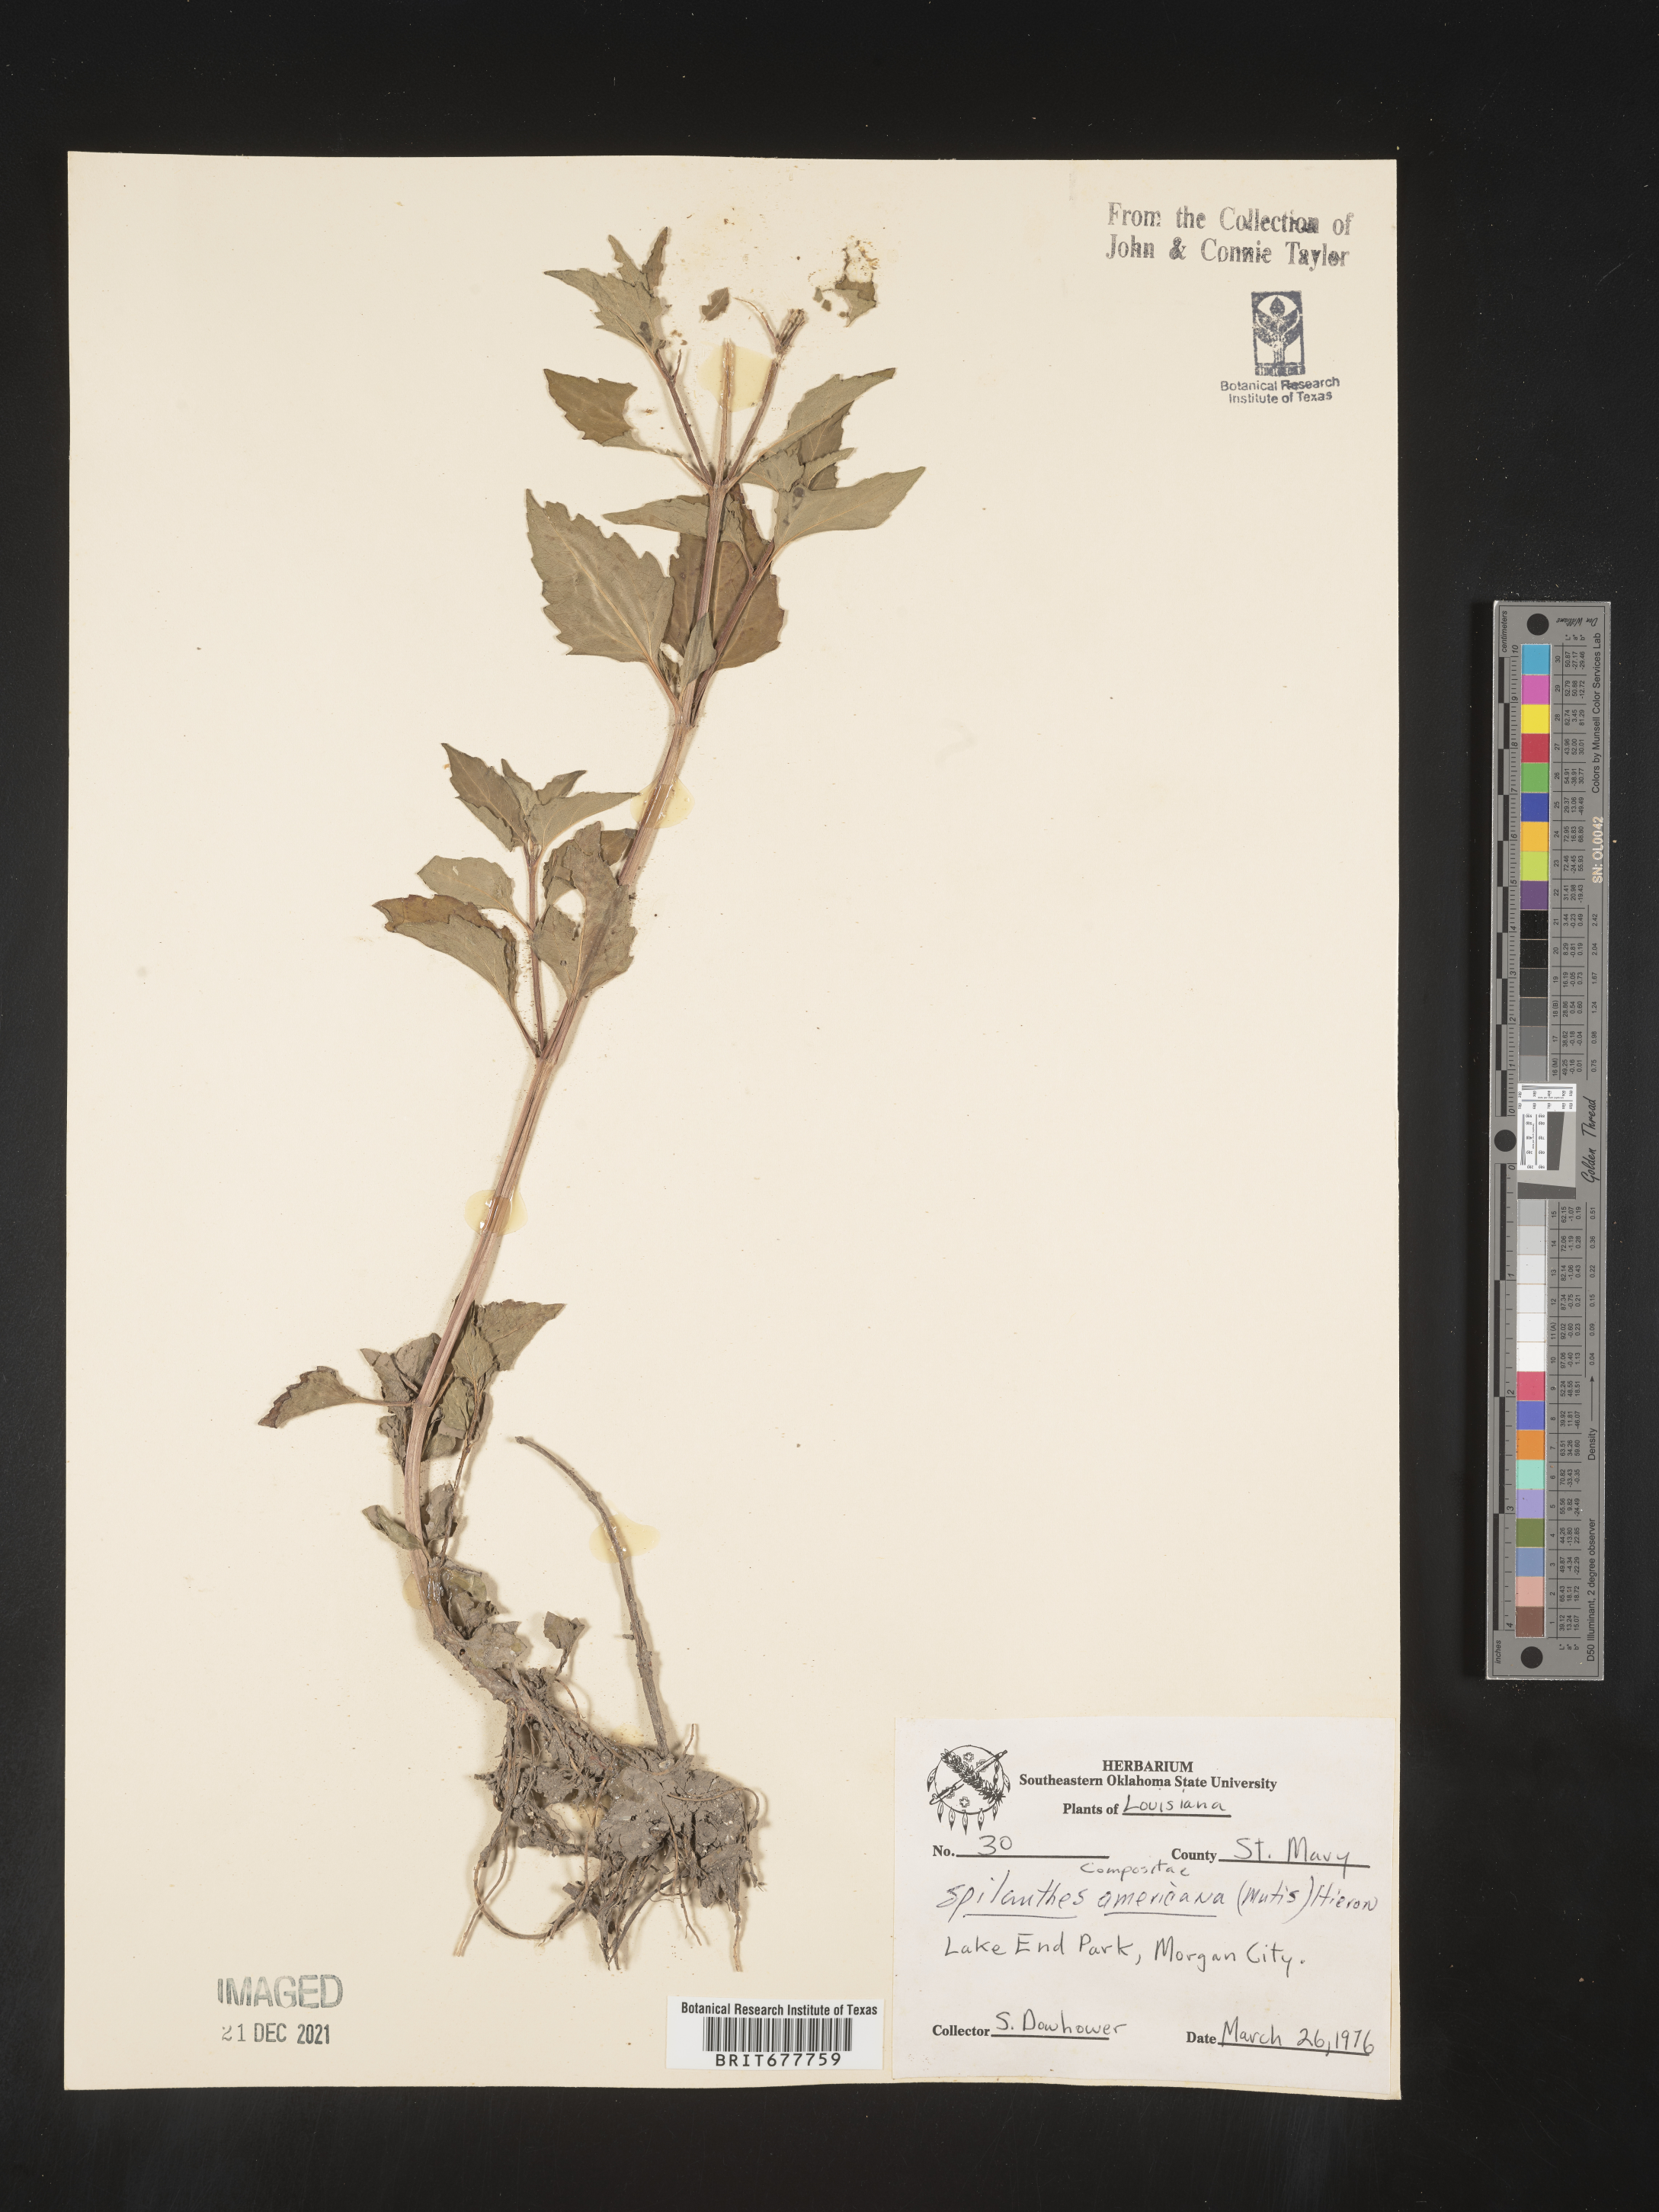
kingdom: Plantae
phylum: Tracheophyta
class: Magnoliopsida
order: Asterales
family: Asteraceae
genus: Spilanthes
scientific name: Spilanthes
